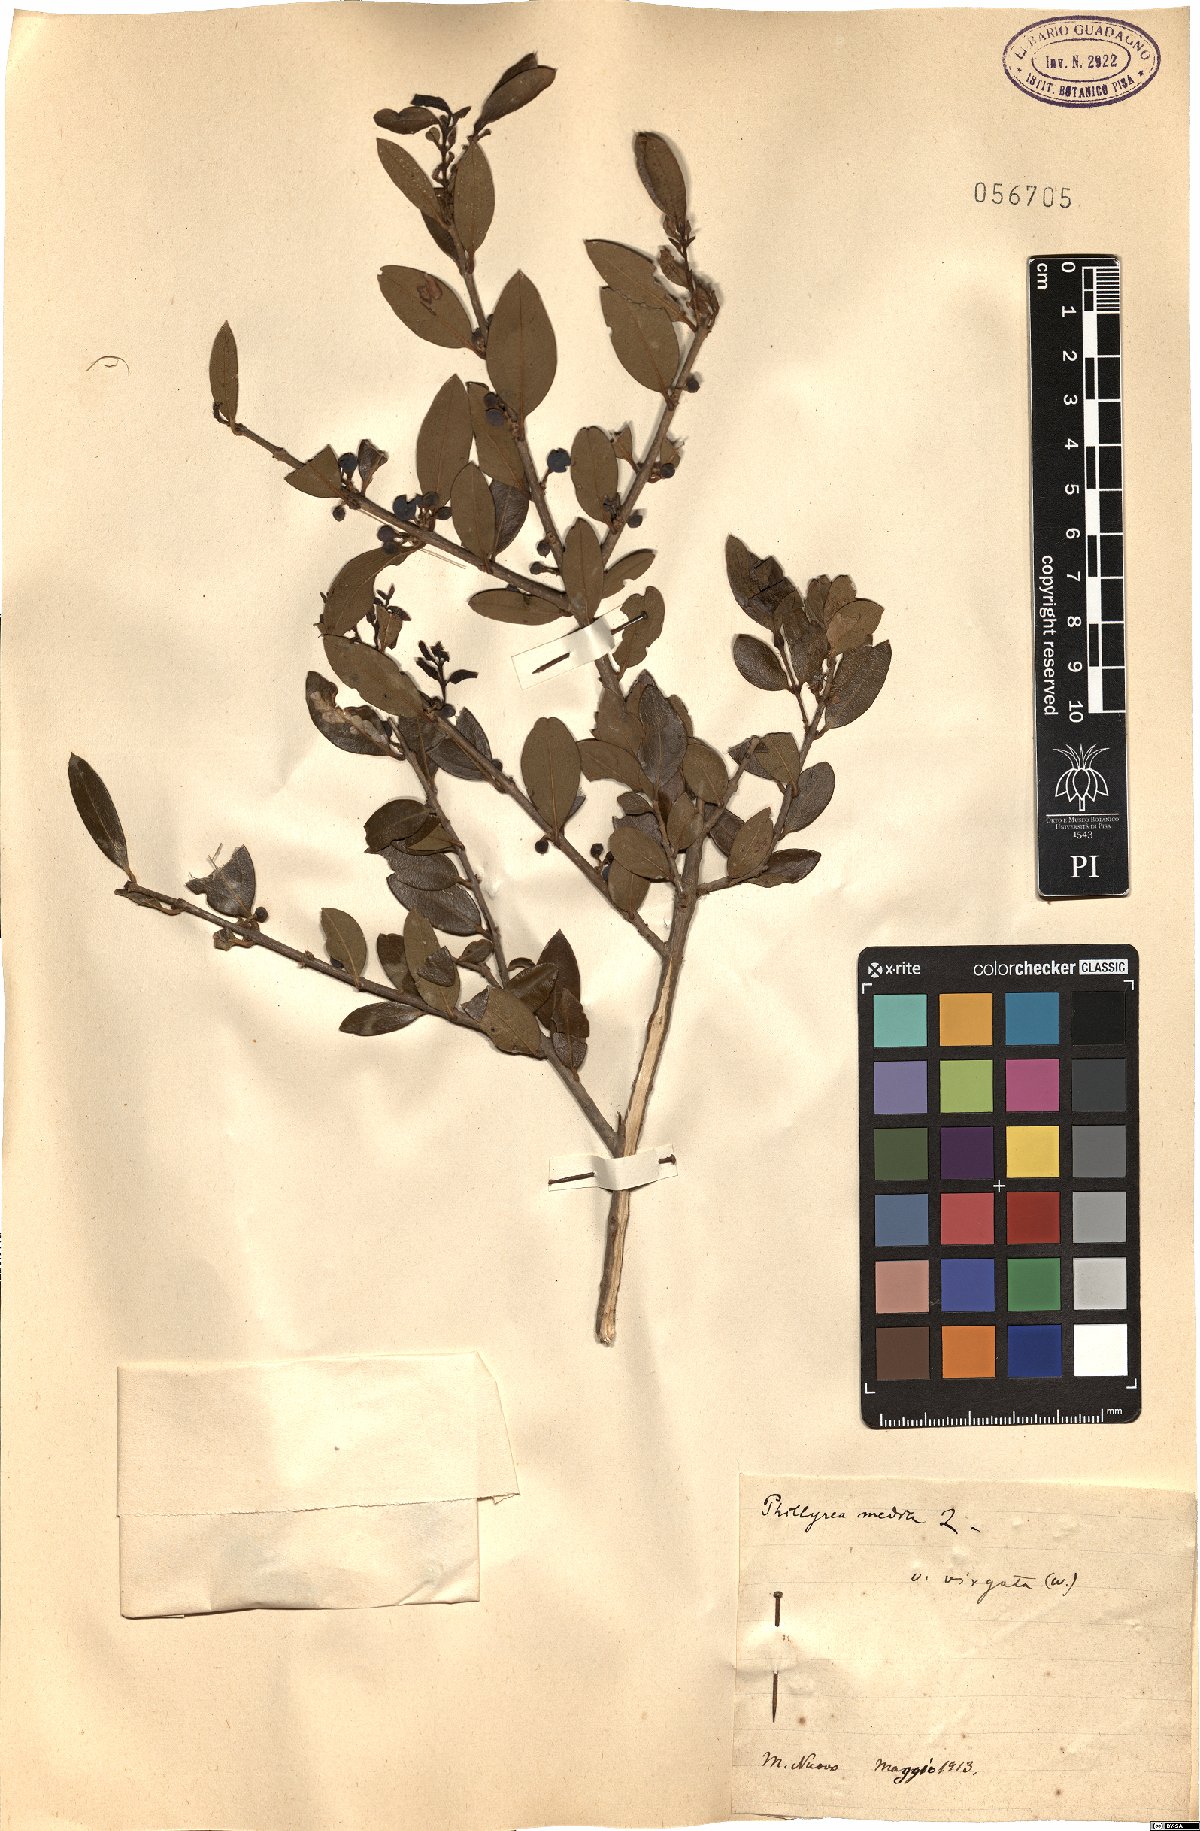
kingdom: Plantae
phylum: Tracheophyta
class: Magnoliopsida
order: Lamiales
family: Oleaceae
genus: Phillyrea
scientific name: Phillyrea latifolia
